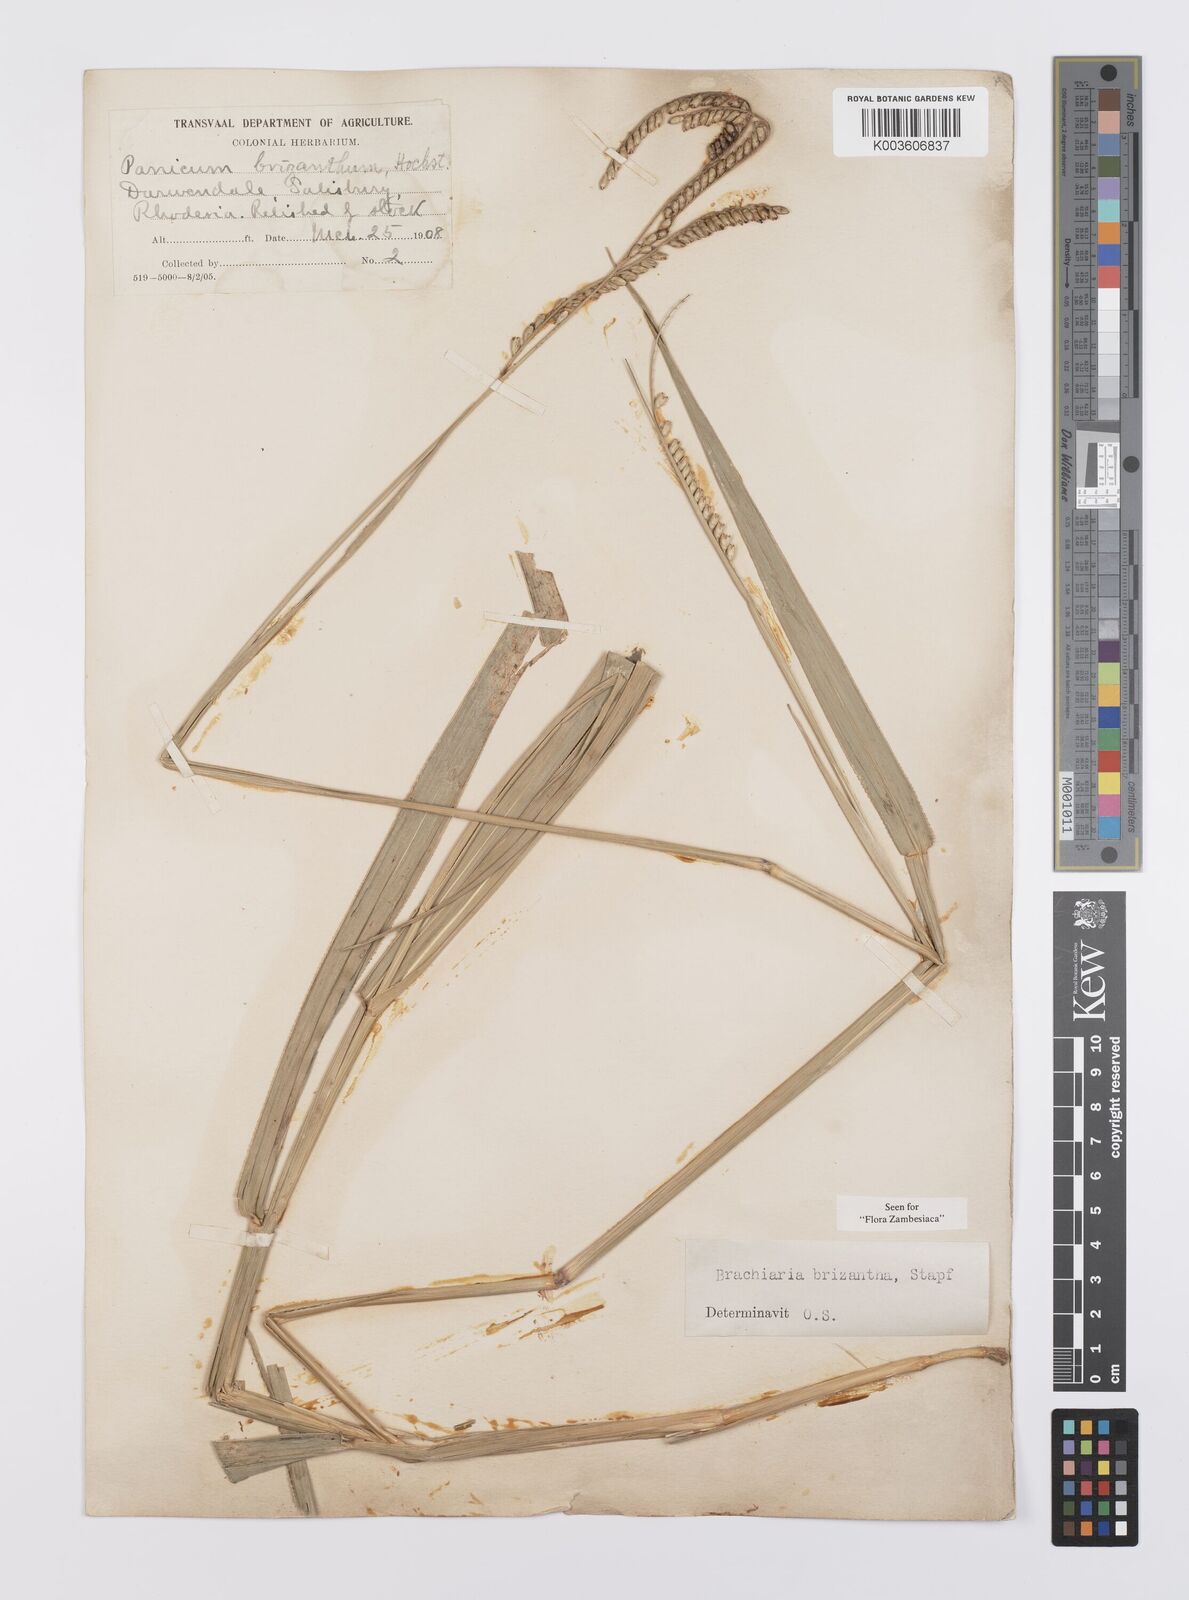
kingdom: Plantae
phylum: Tracheophyta
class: Liliopsida
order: Poales
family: Poaceae
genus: Urochloa
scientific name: Urochloa brizantha
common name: Palisade signalgrass
